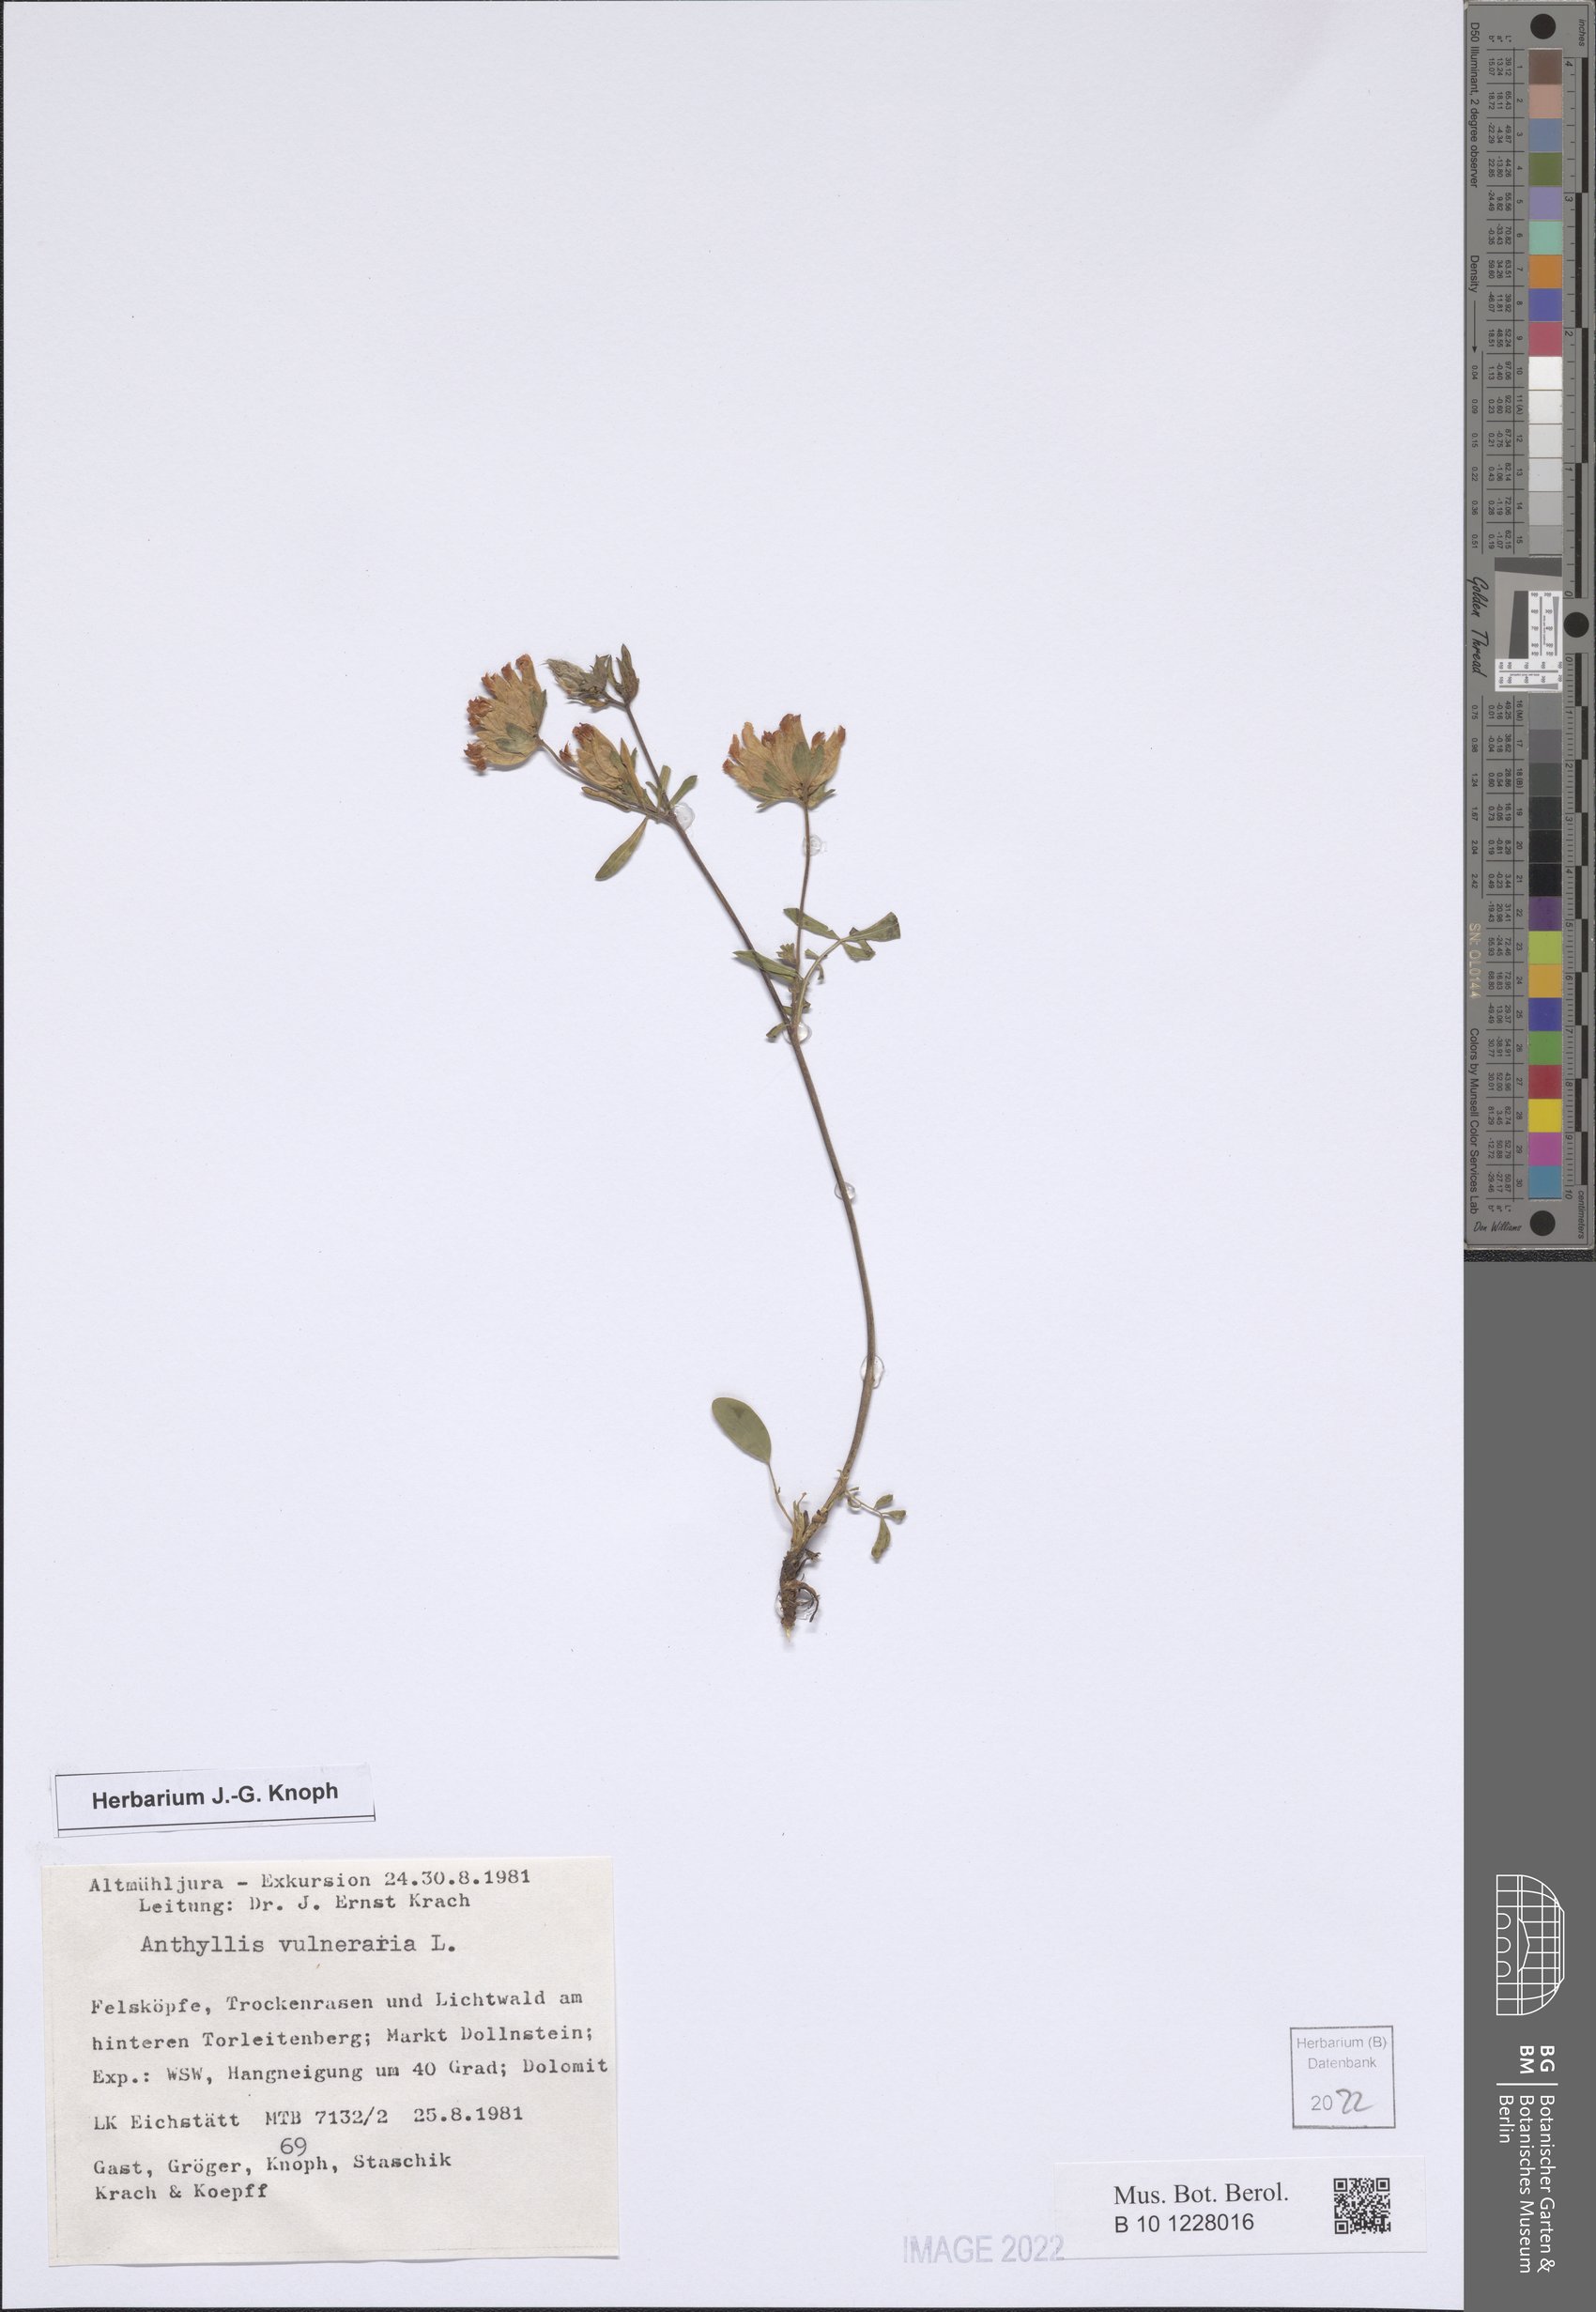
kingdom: Plantae
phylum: Tracheophyta
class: Magnoliopsida
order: Fabales
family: Fabaceae
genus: Anthyllis
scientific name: Anthyllis vulneraria
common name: Kidney vetch
